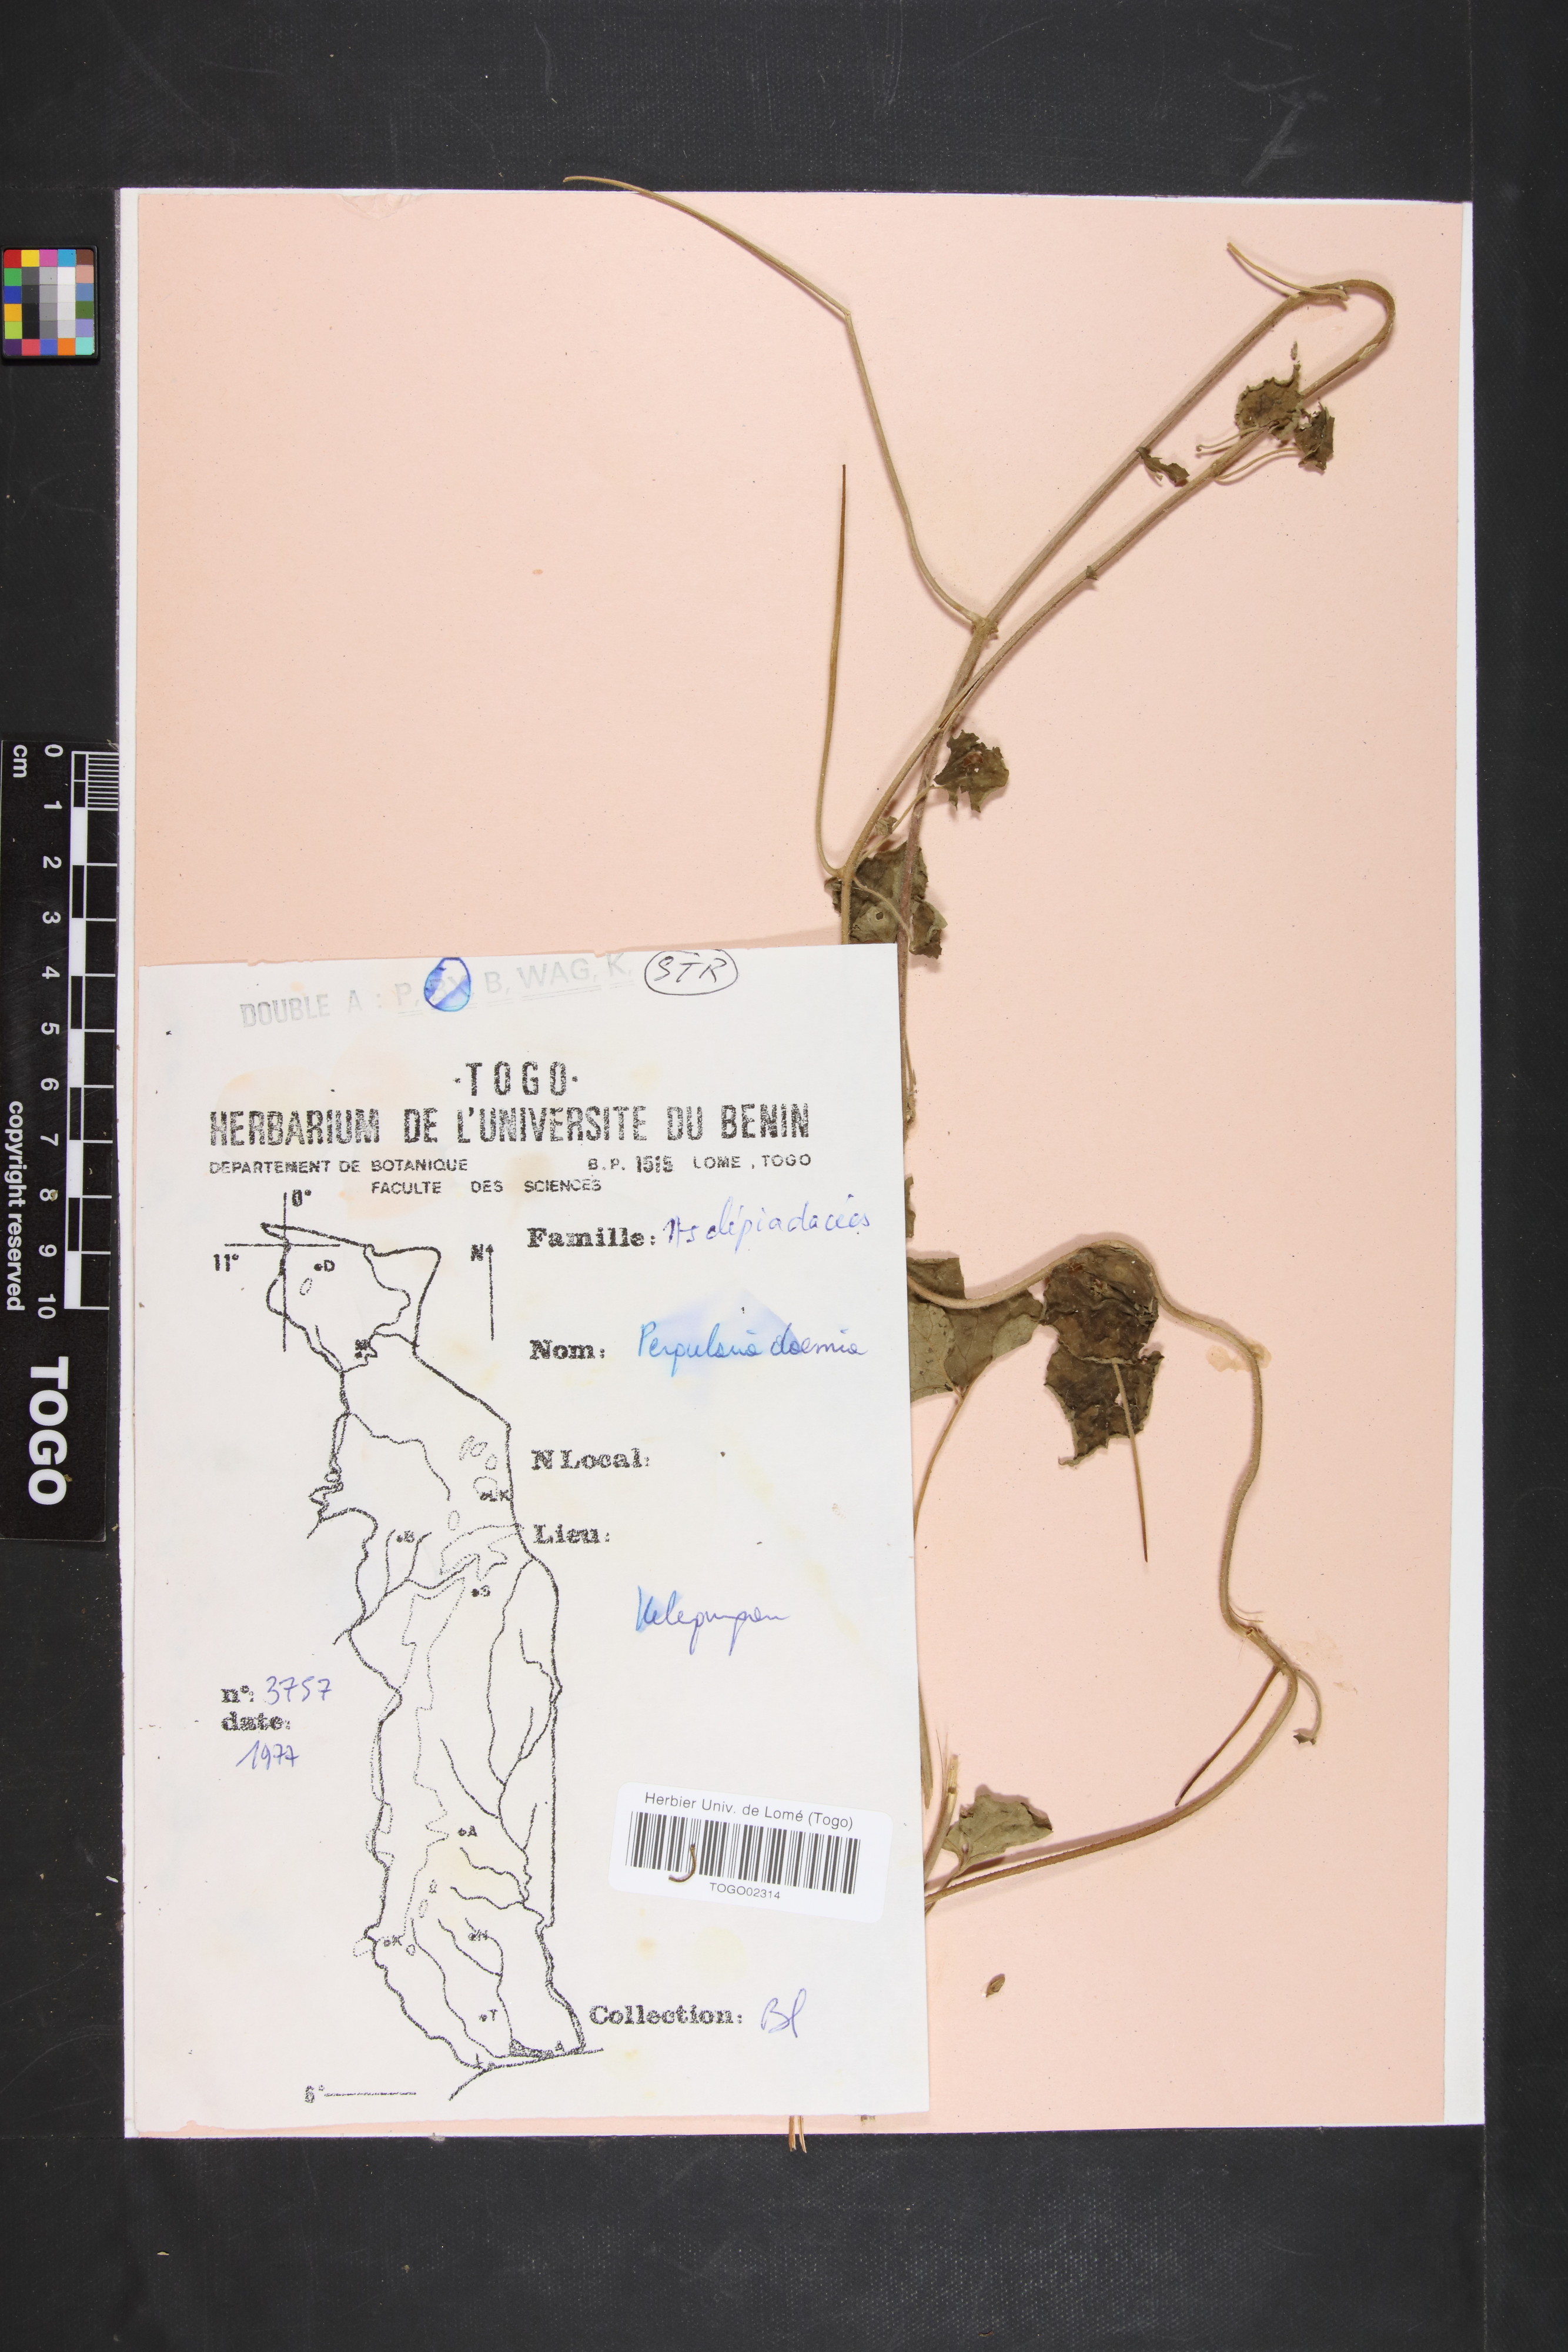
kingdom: Plantae
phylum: Tracheophyta
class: Magnoliopsida
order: Gentianales
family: Apocynaceae
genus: Pergularia
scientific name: Pergularia daemia
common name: Trellis-vine
